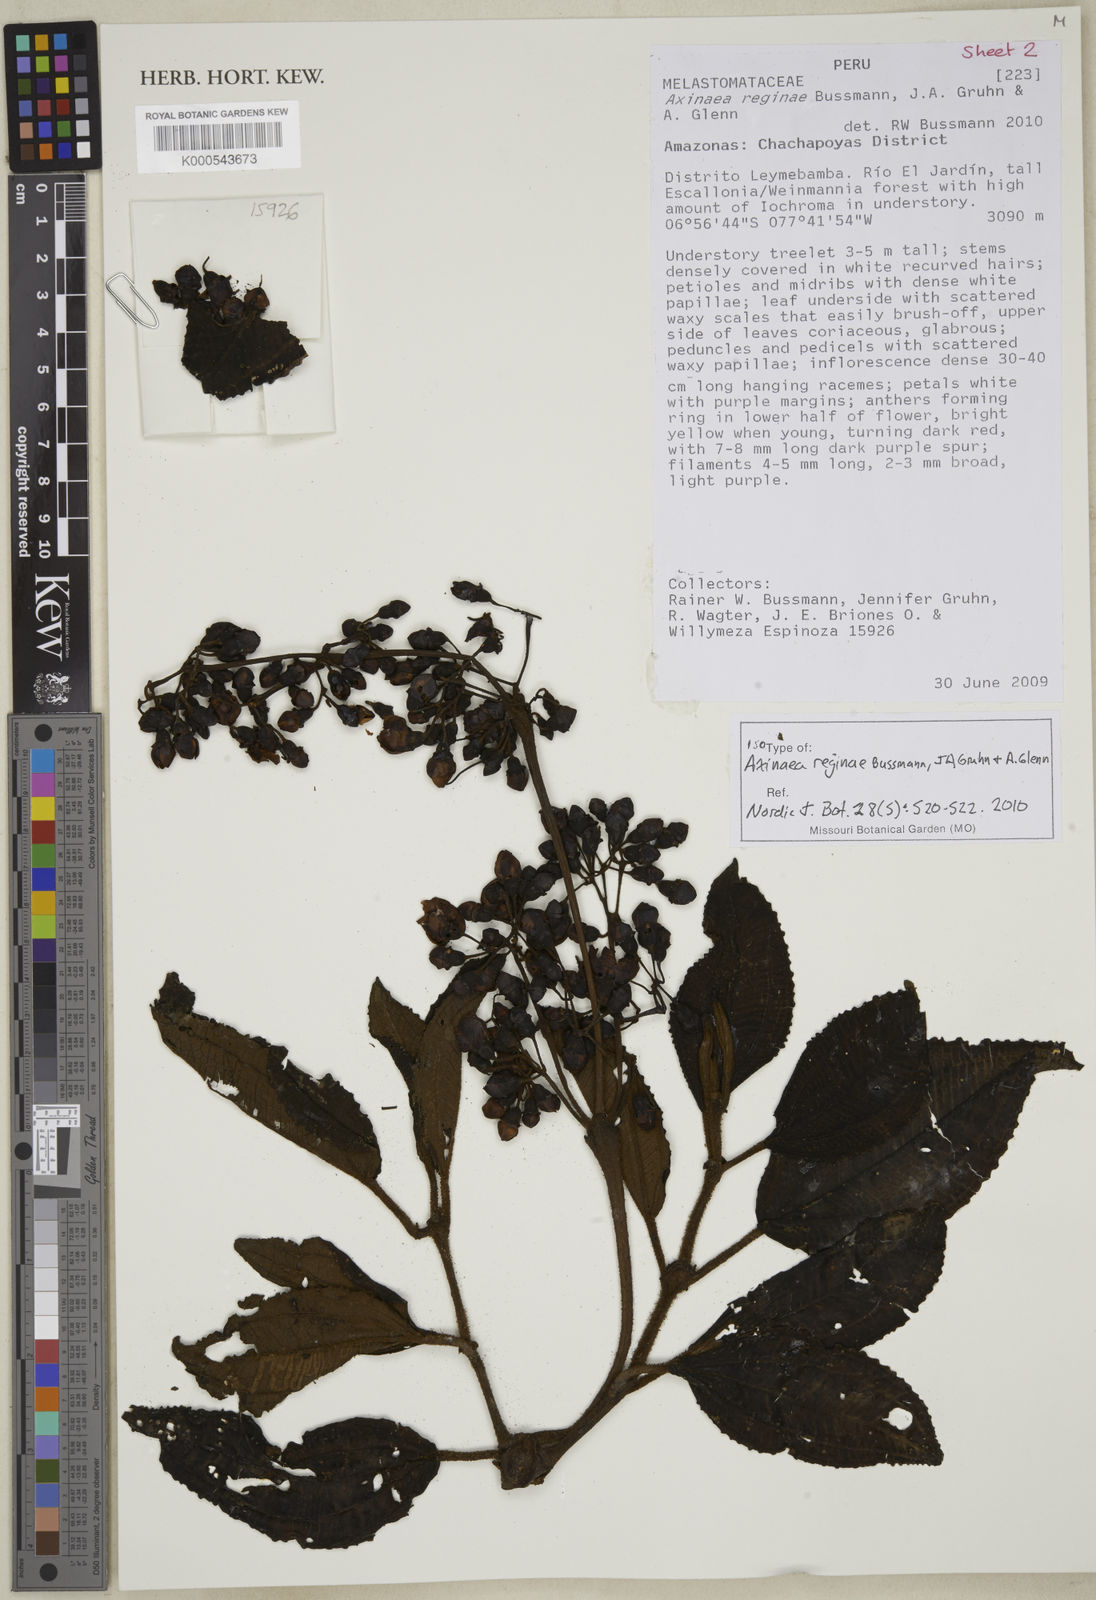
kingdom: Plantae
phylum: Tracheophyta
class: Magnoliopsida
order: Myrtales
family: Melastomataceae
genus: Axinaea
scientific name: Axinaea reginae
